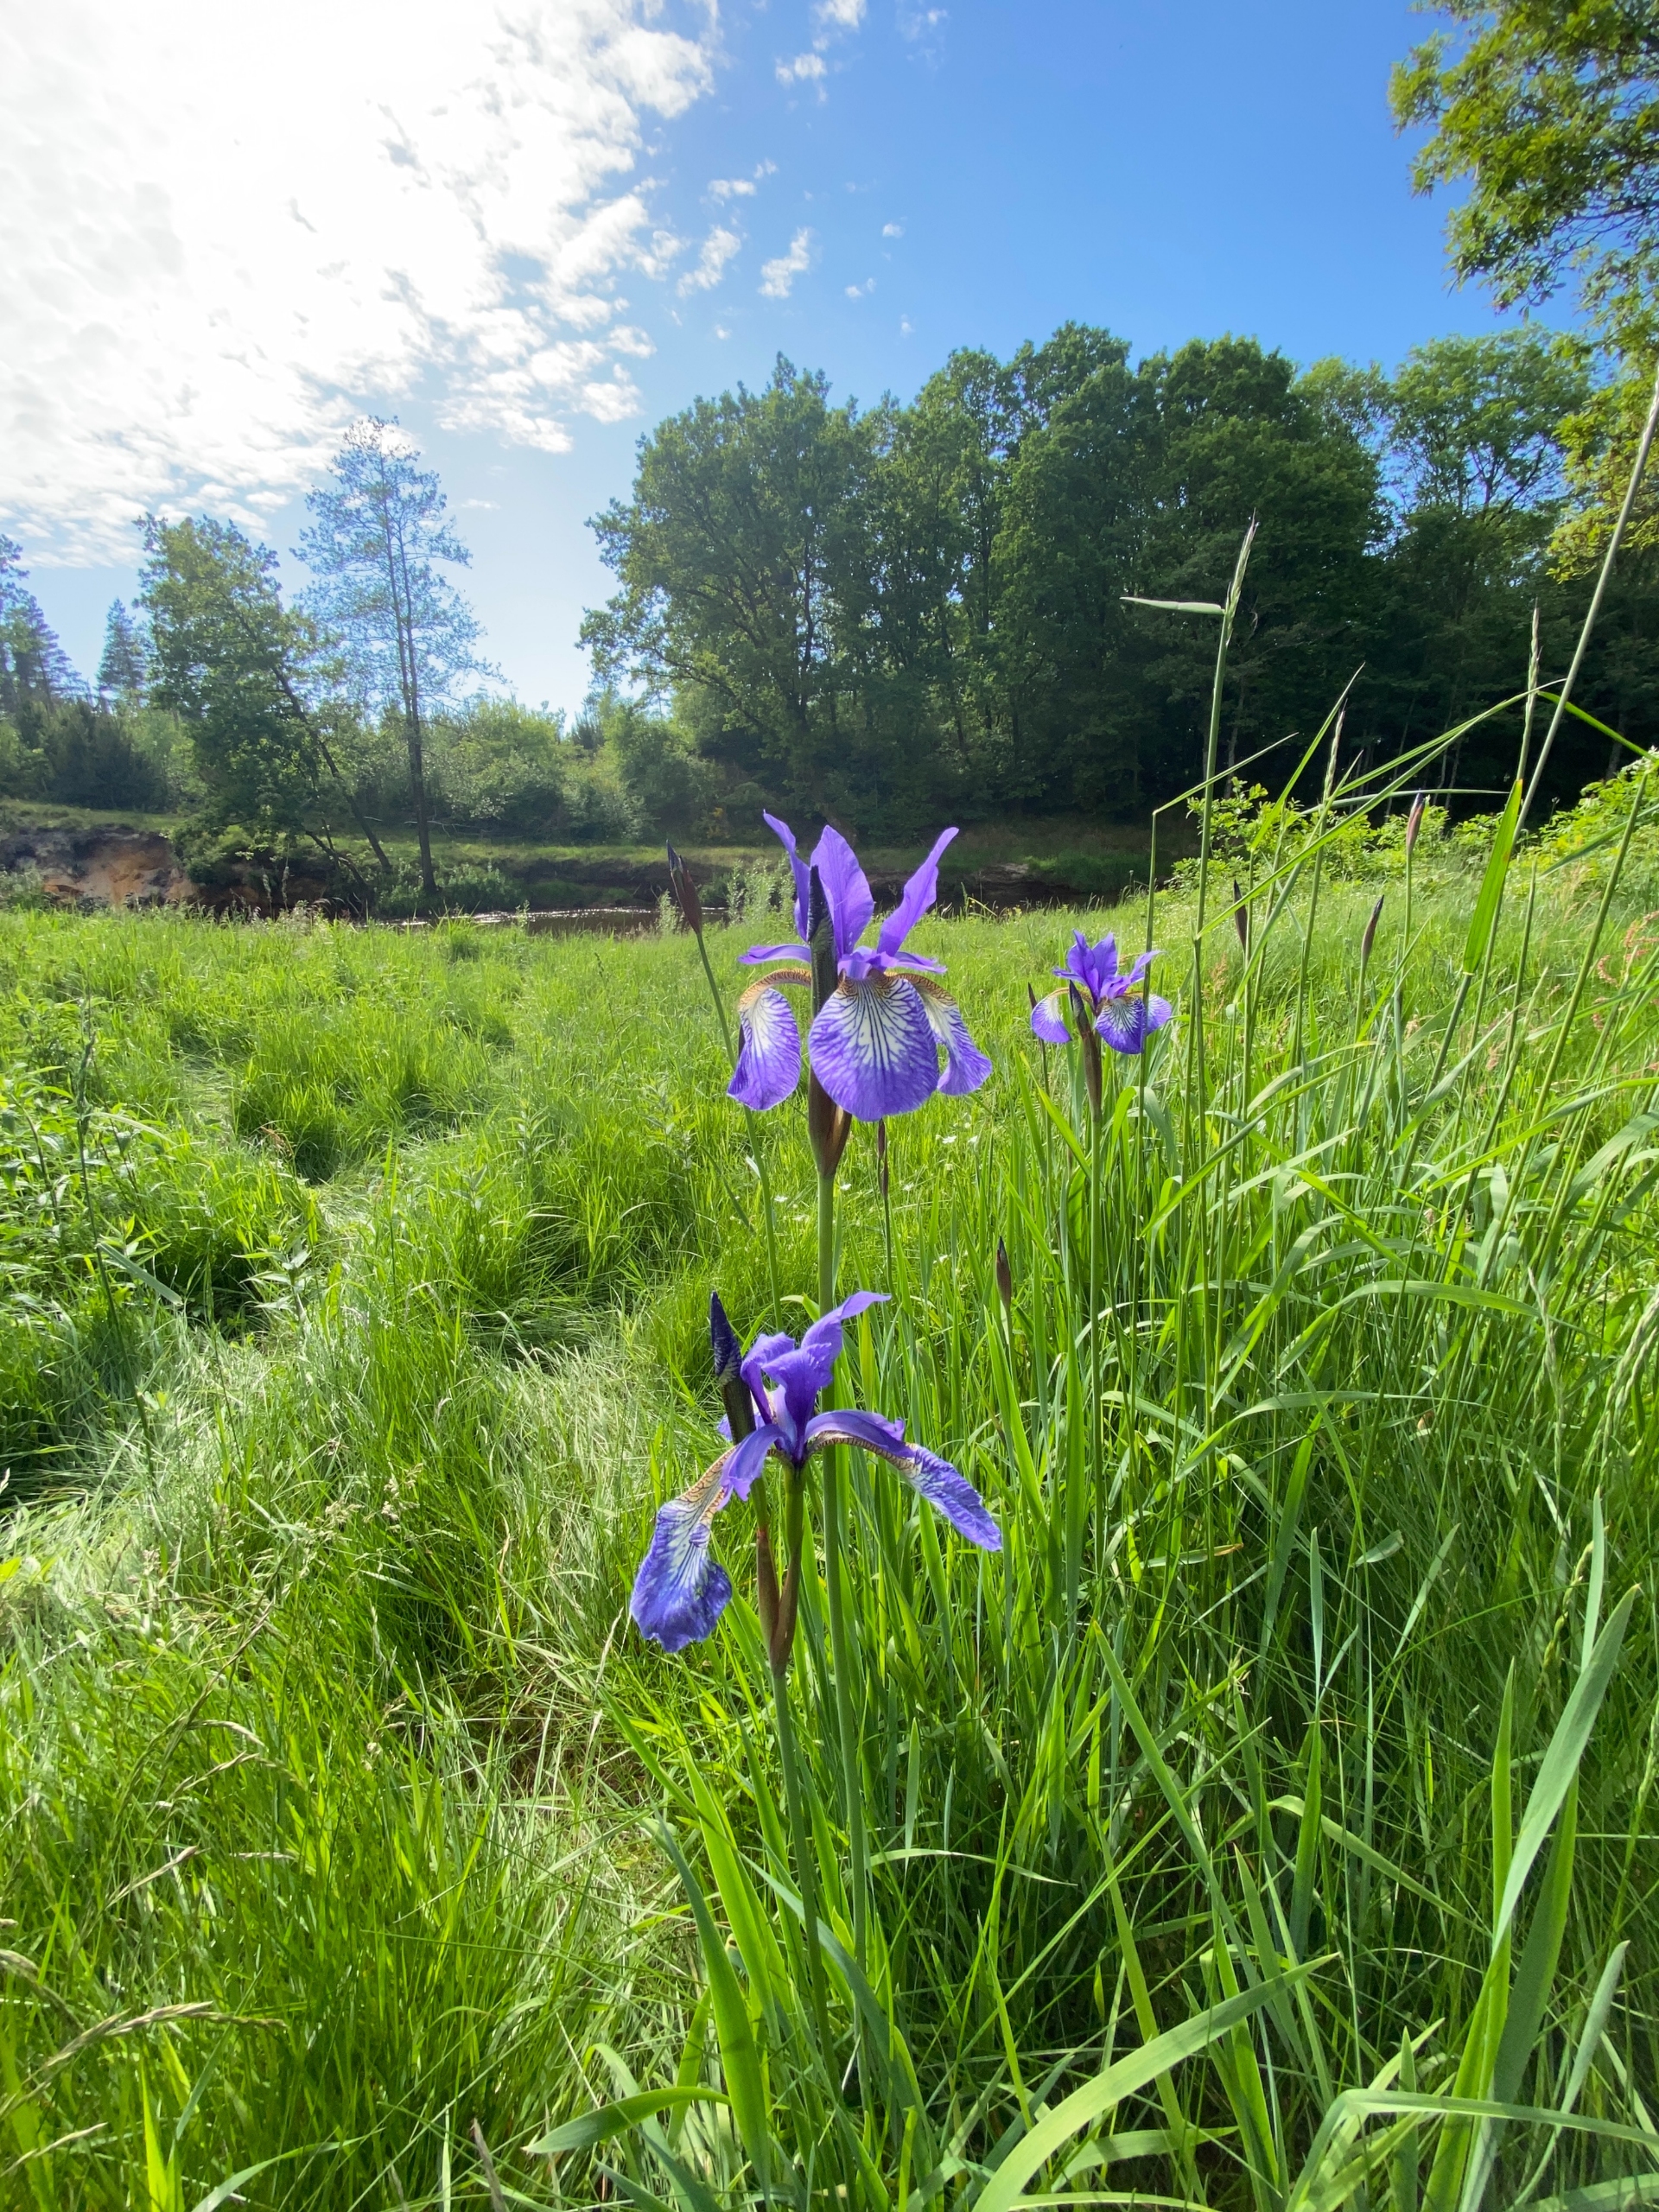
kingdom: Plantae
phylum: Tracheophyta
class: Liliopsida
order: Asparagales
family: Iridaceae
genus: Iris
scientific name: Iris sibirica
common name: Sibirisk iris
